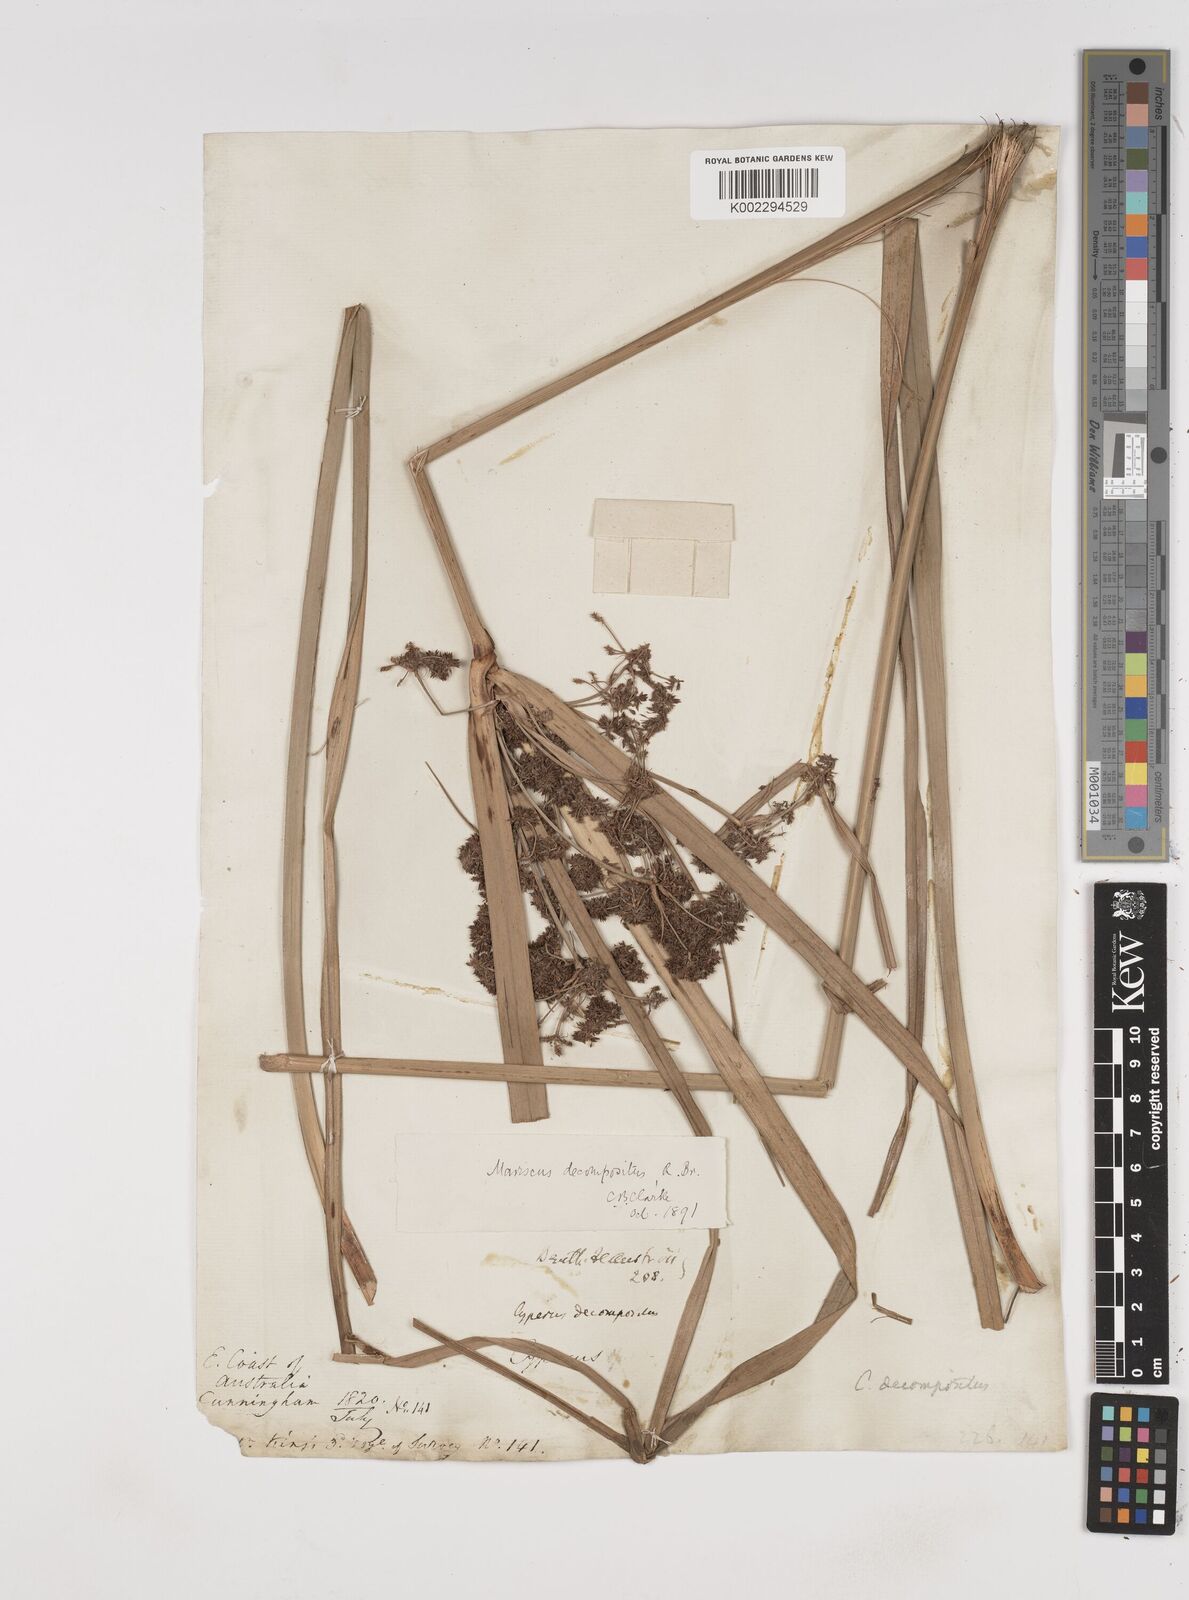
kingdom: Plantae
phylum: Tracheophyta
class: Liliopsida
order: Poales
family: Cyperaceae
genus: Cyperus
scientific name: Cyperus decompositus
